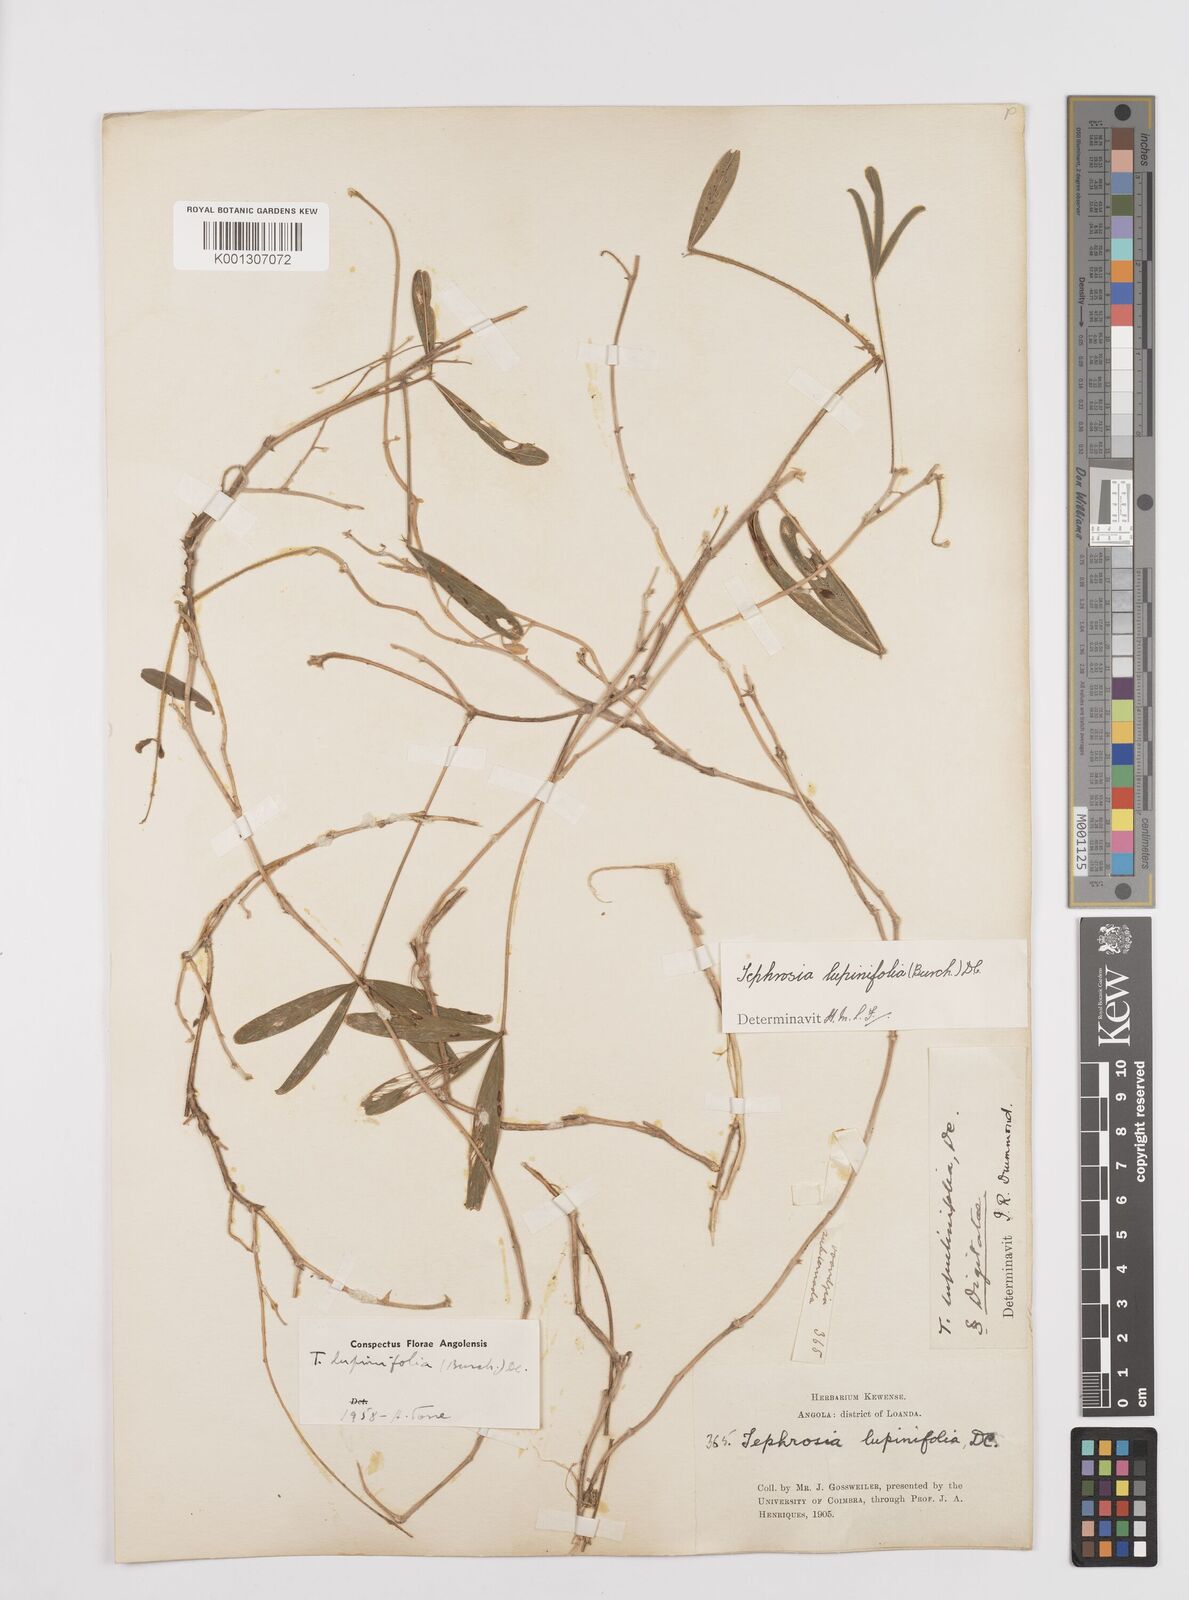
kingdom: Plantae
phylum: Tracheophyta
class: Magnoliopsida
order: Fabales
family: Fabaceae
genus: Tephrosia
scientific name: Tephrosia lupinifolia
